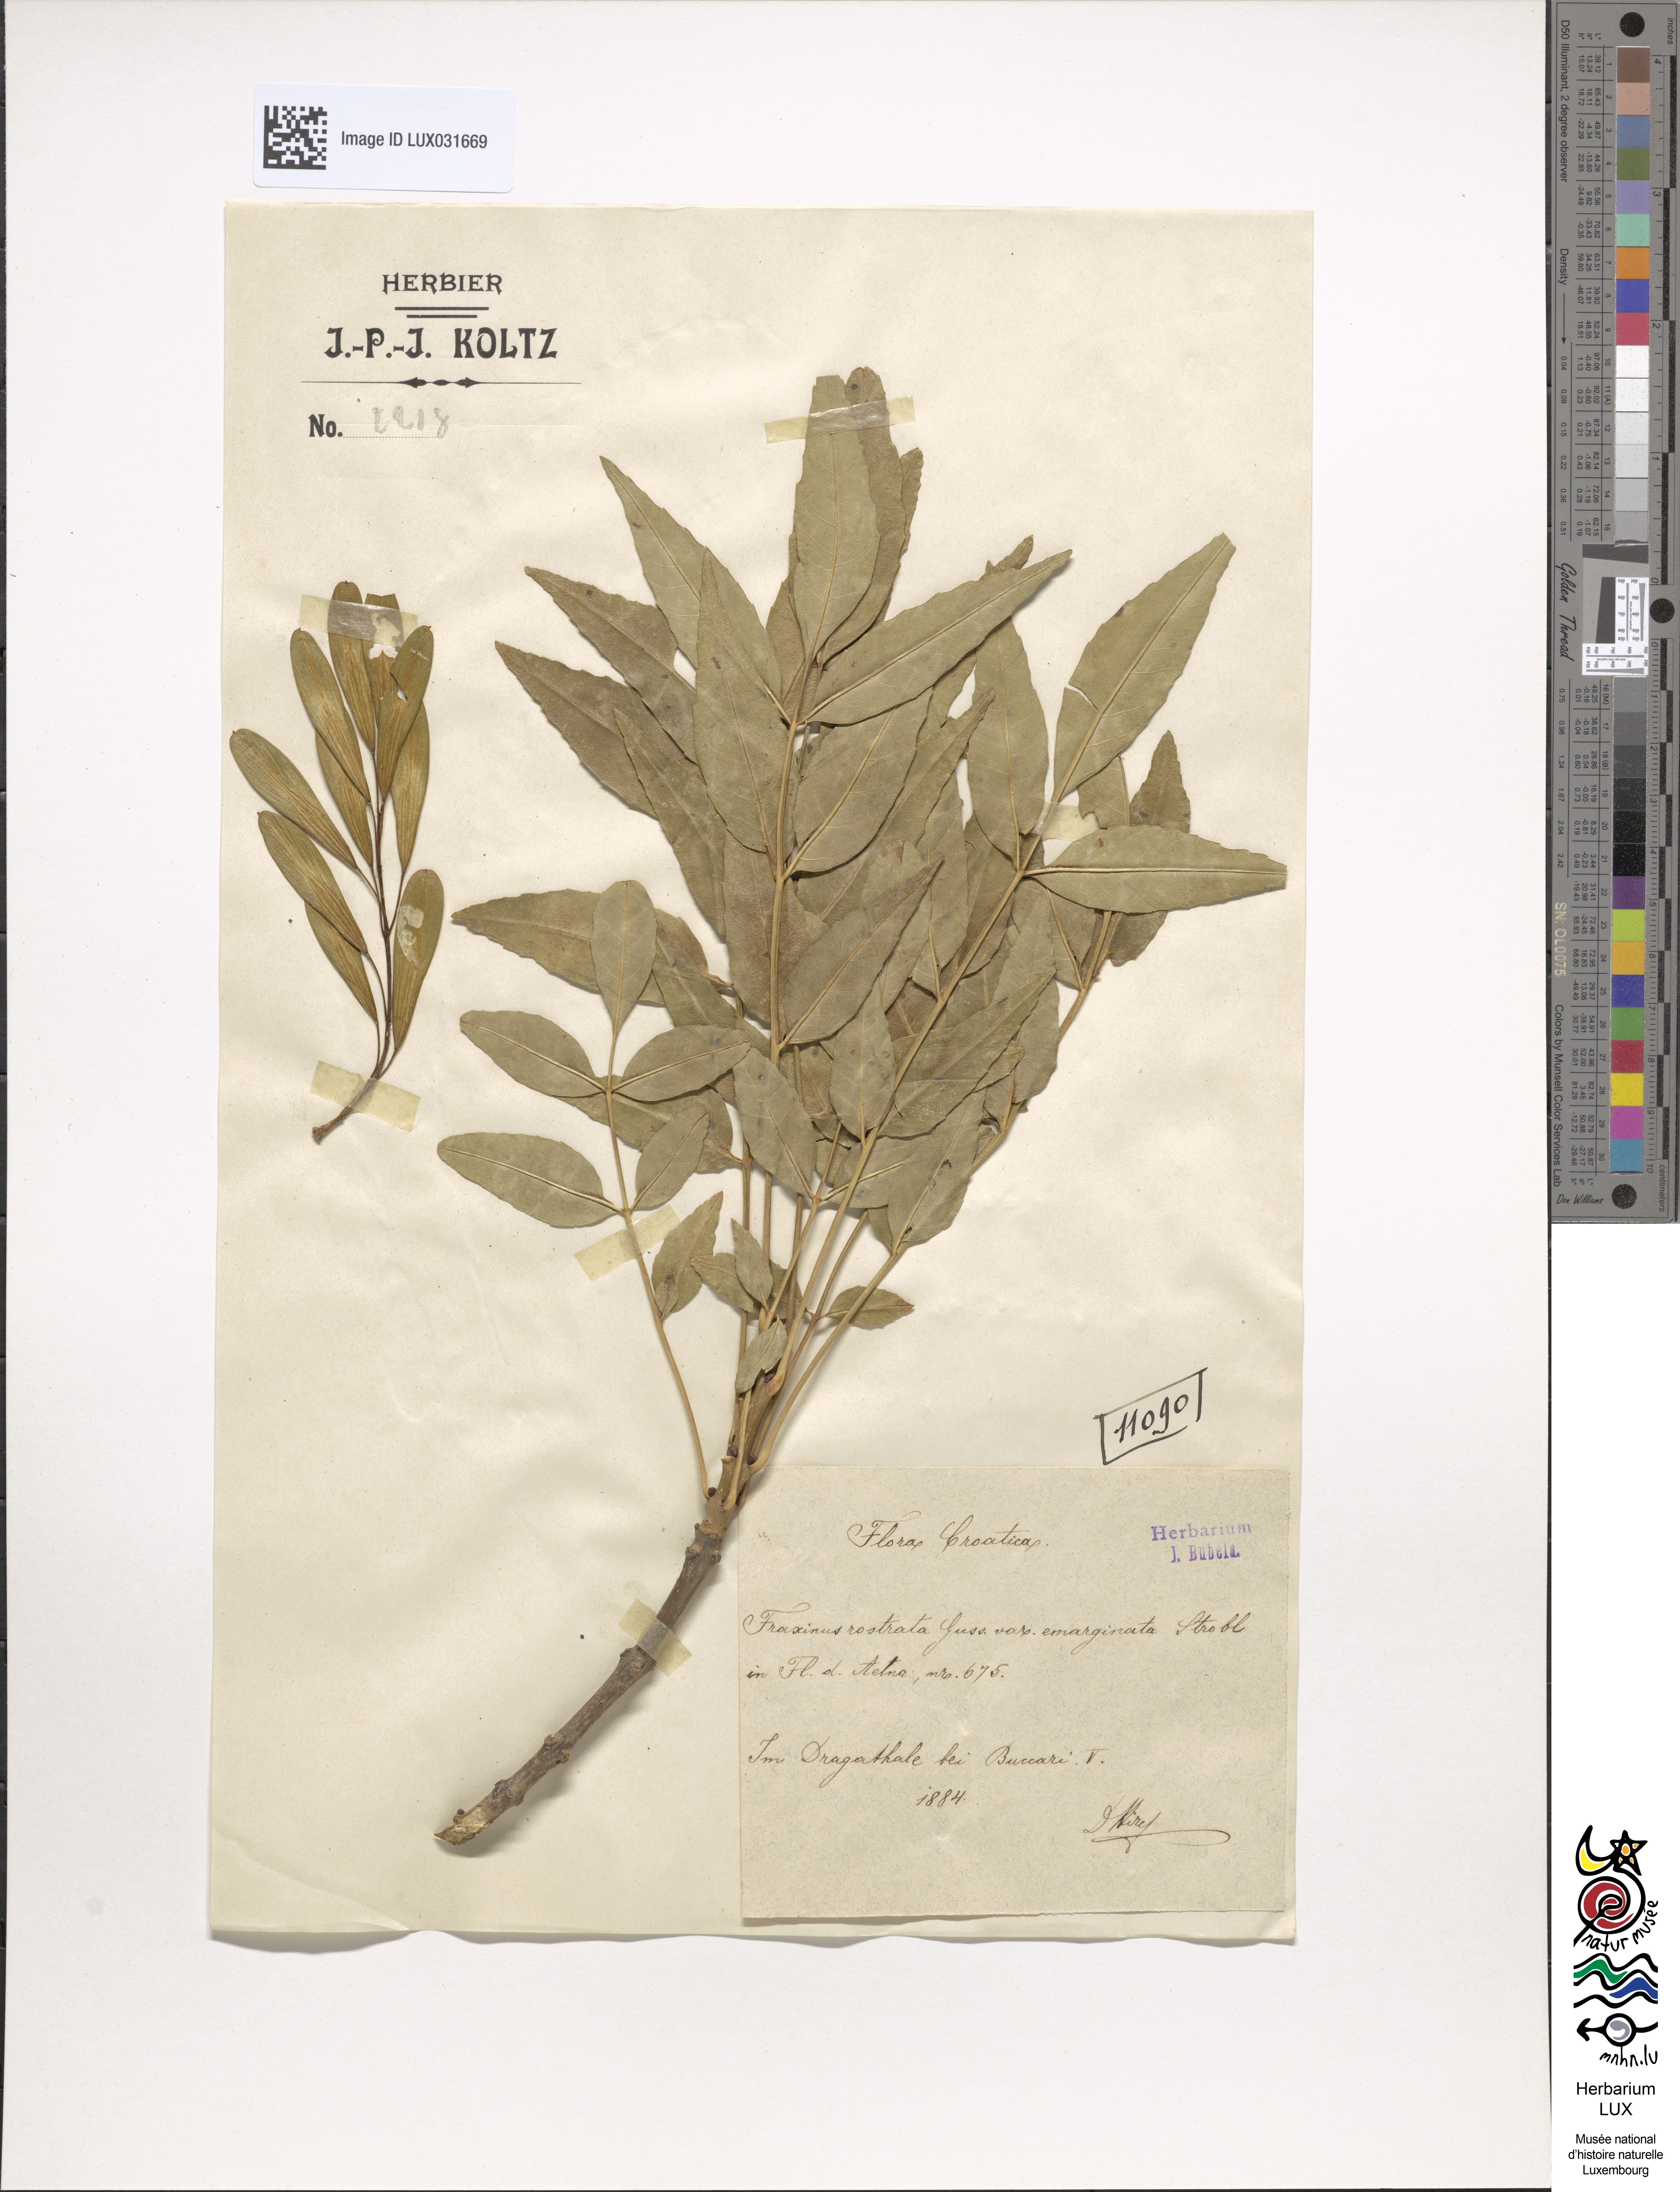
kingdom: Plantae
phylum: Tracheophyta
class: Magnoliopsida
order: Lamiales
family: Oleaceae
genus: Fraxinus
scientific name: Fraxinus angustifolia
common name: Narrow-leafed ash
